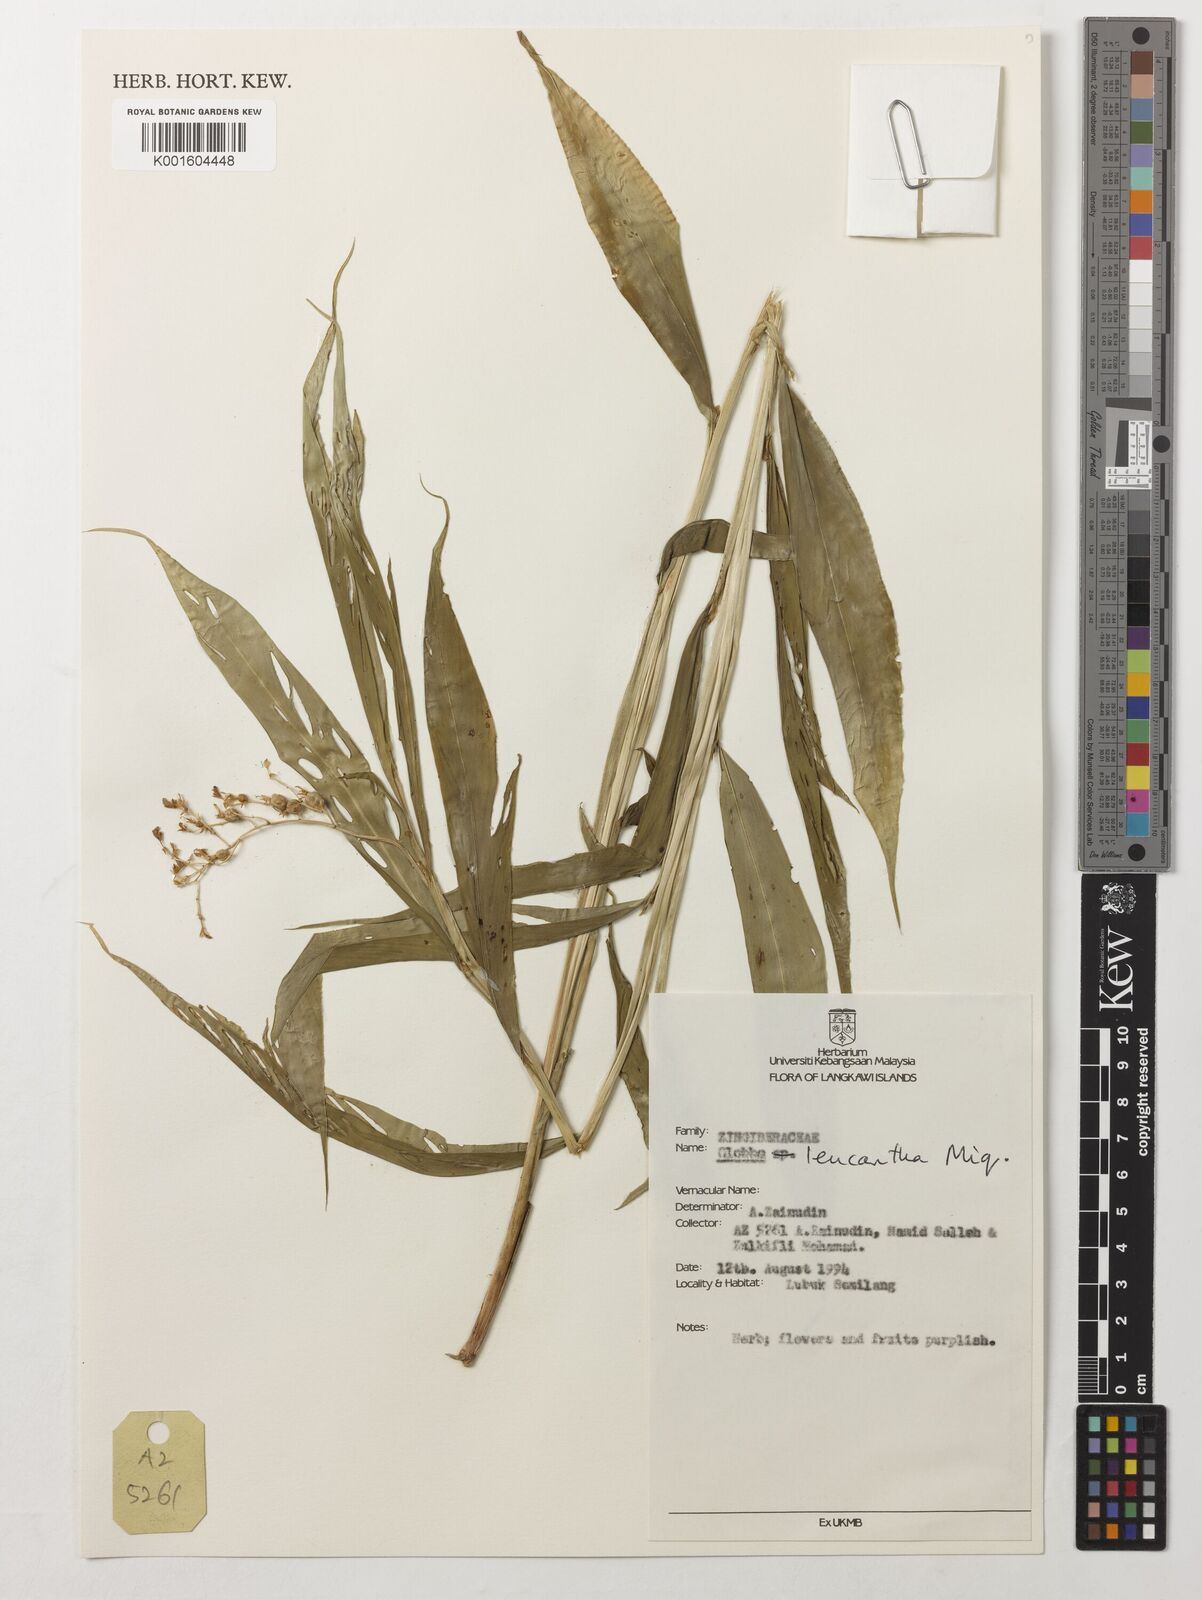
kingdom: Plantae
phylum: Tracheophyta
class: Liliopsida
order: Zingiberales
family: Zingiberaceae
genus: Globba
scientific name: Globba leucantha
